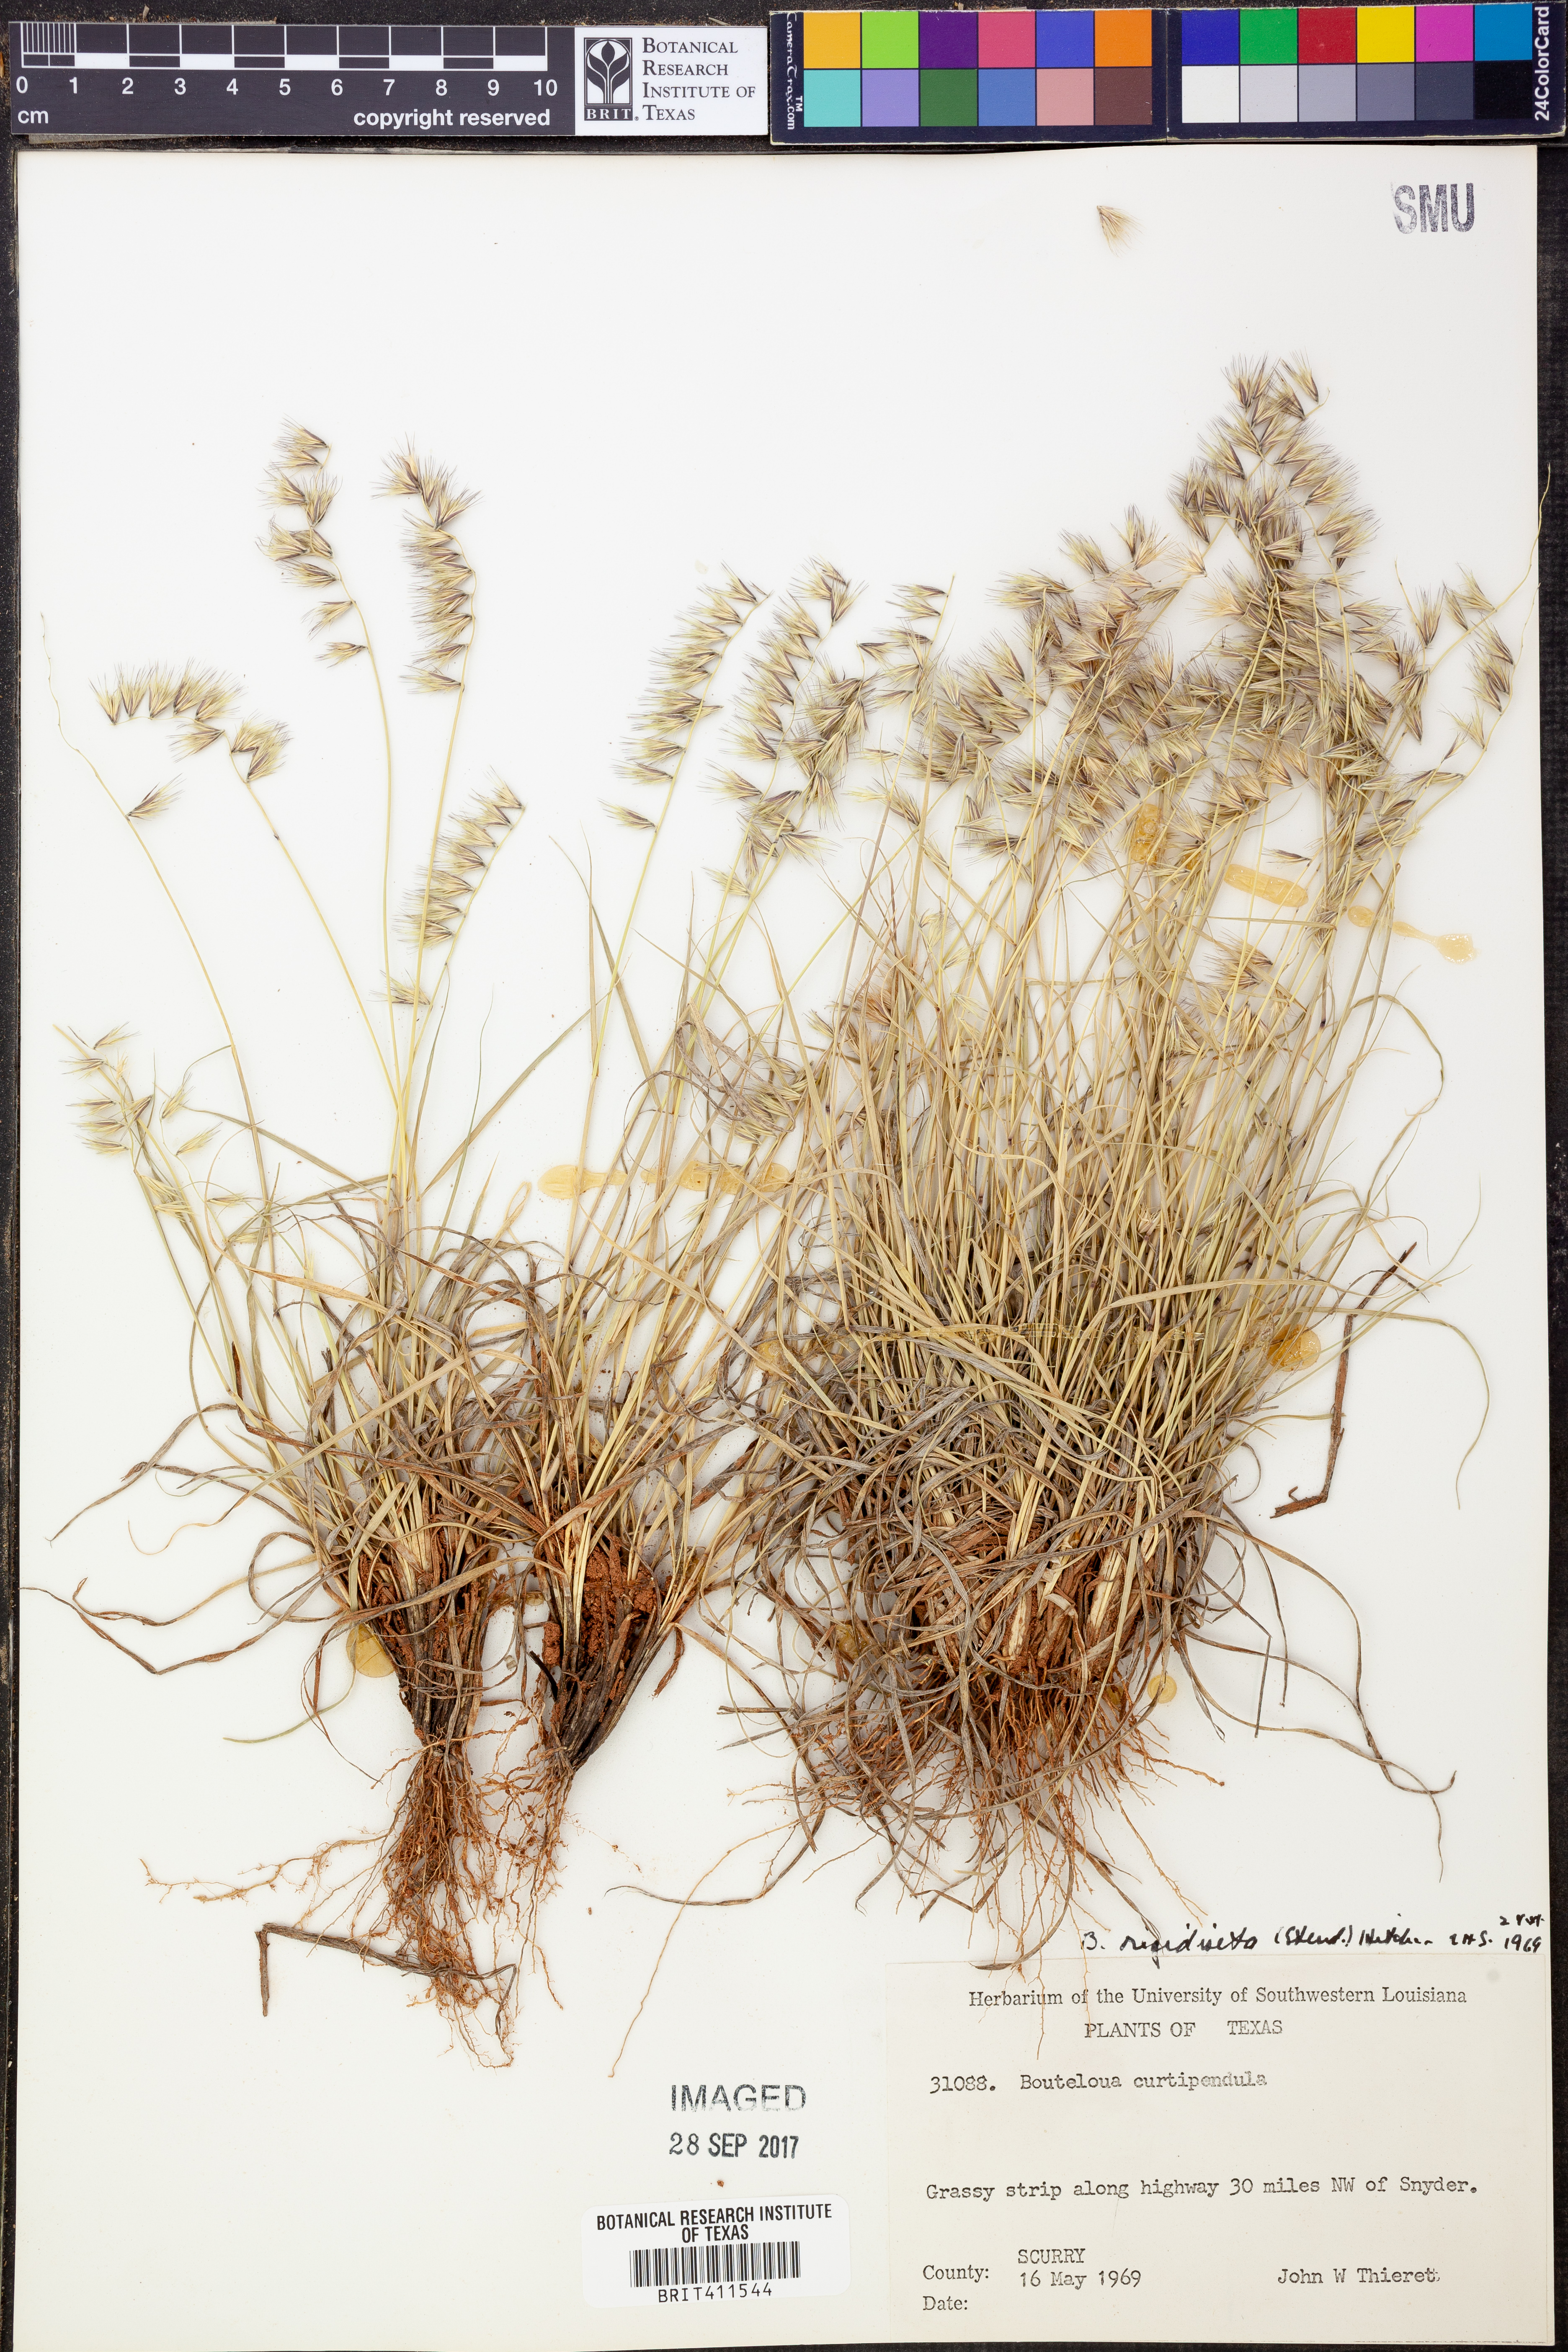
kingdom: Plantae
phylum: Tracheophyta
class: Liliopsida
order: Poales
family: Poaceae
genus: Bouteloua
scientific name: Bouteloua rigidiseta
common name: Texas grama
